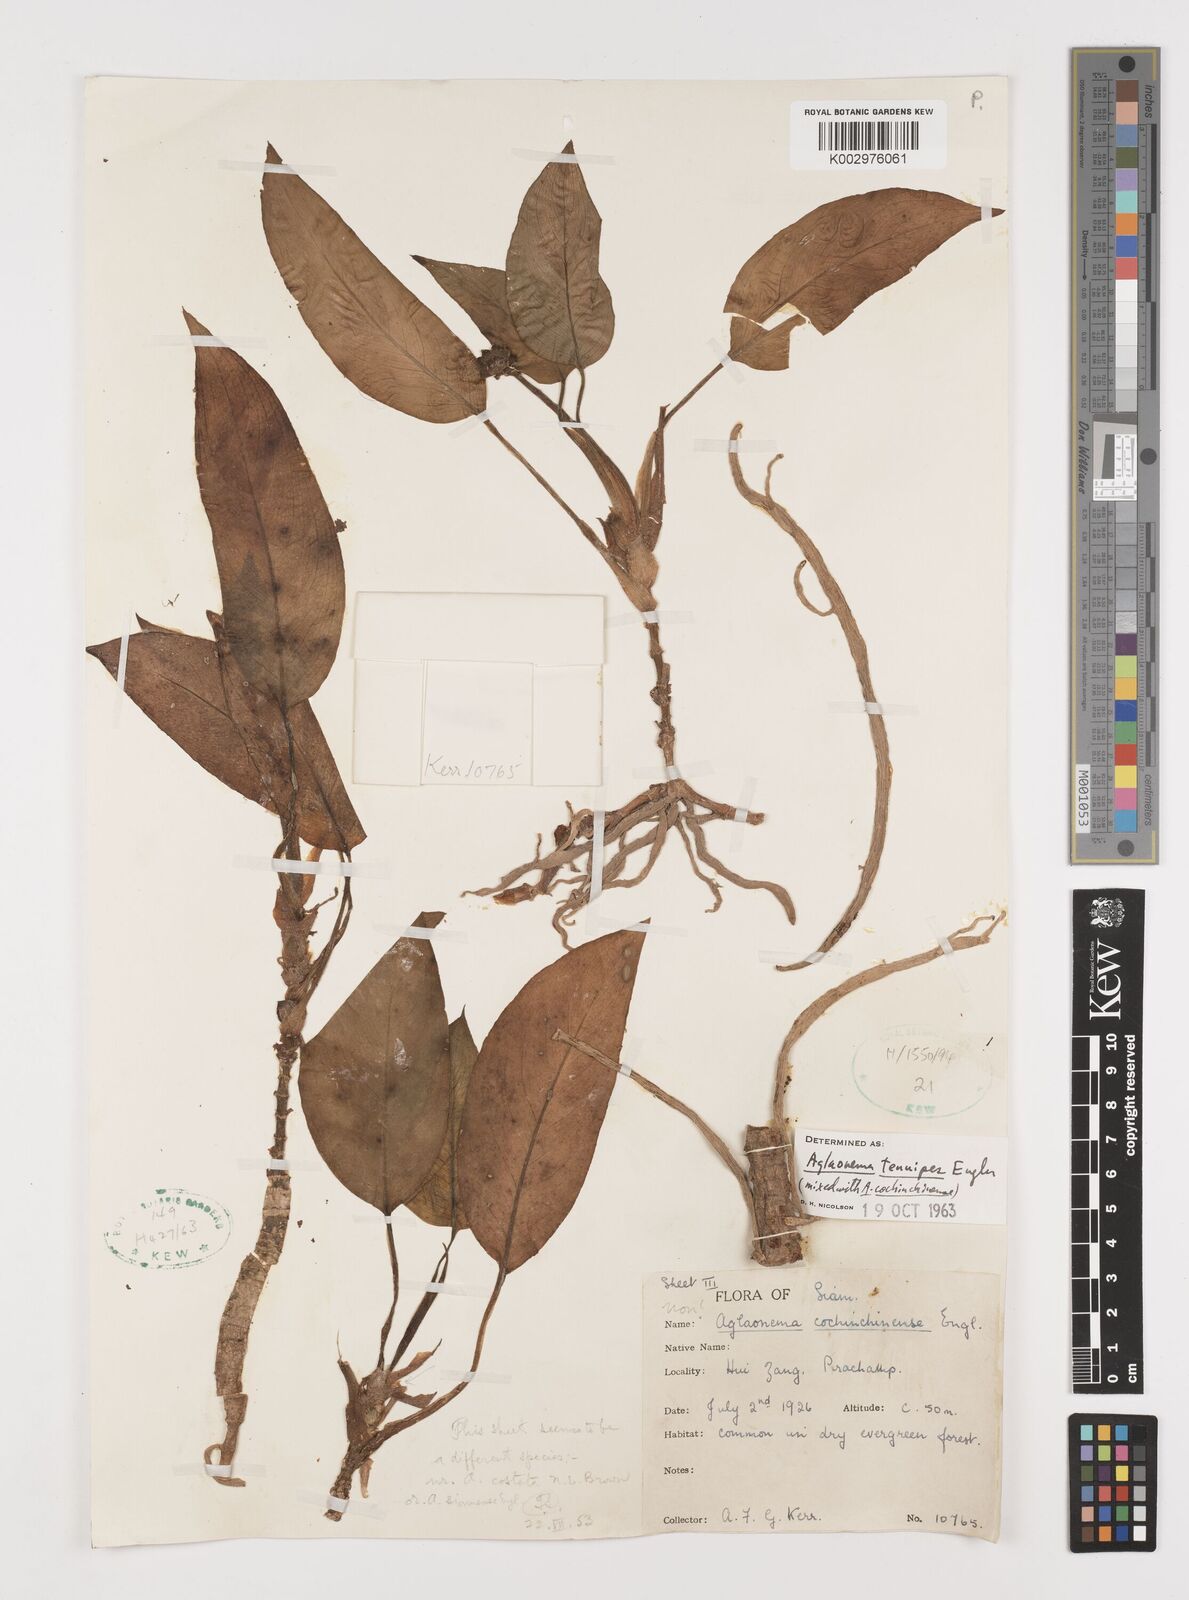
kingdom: Plantae
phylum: Tracheophyta
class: Liliopsida
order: Alismatales
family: Araceae
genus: Aglaonema
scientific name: Aglaonema simplex
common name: Malayan-sword
